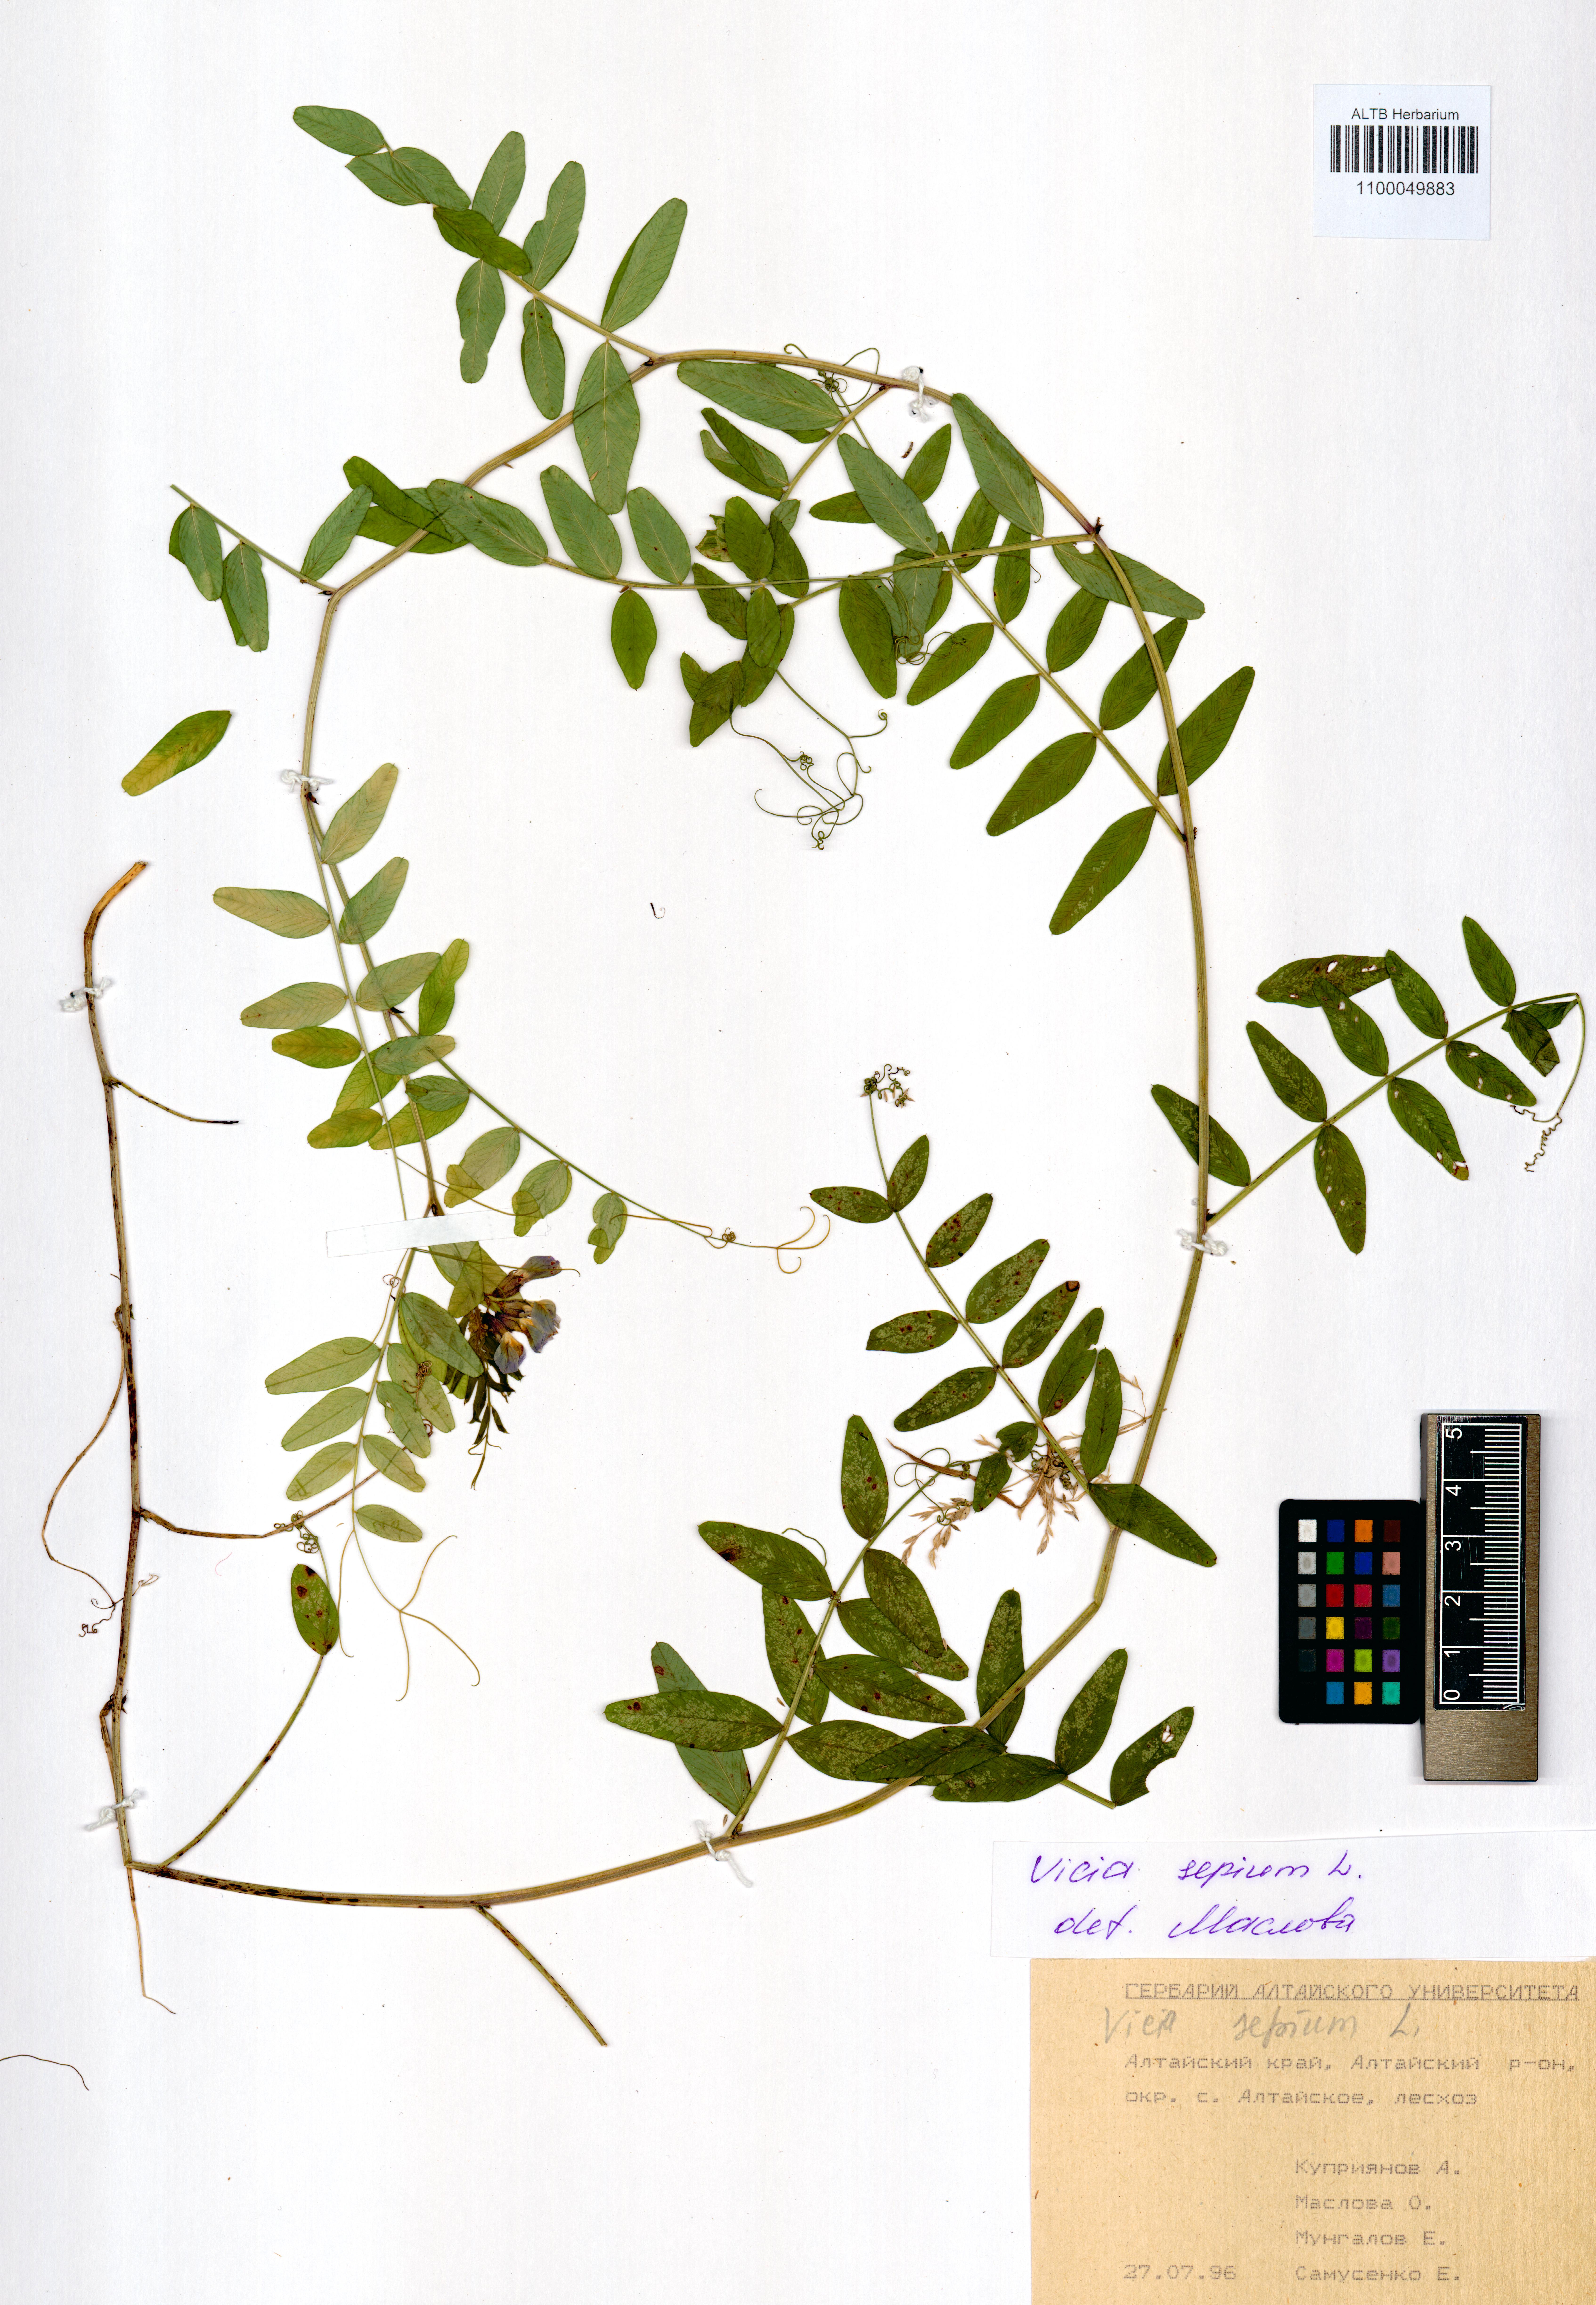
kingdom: Plantae
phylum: Tracheophyta
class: Magnoliopsida
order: Fabales
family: Fabaceae
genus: Vicia
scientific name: Vicia sepium
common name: Bush vetch
